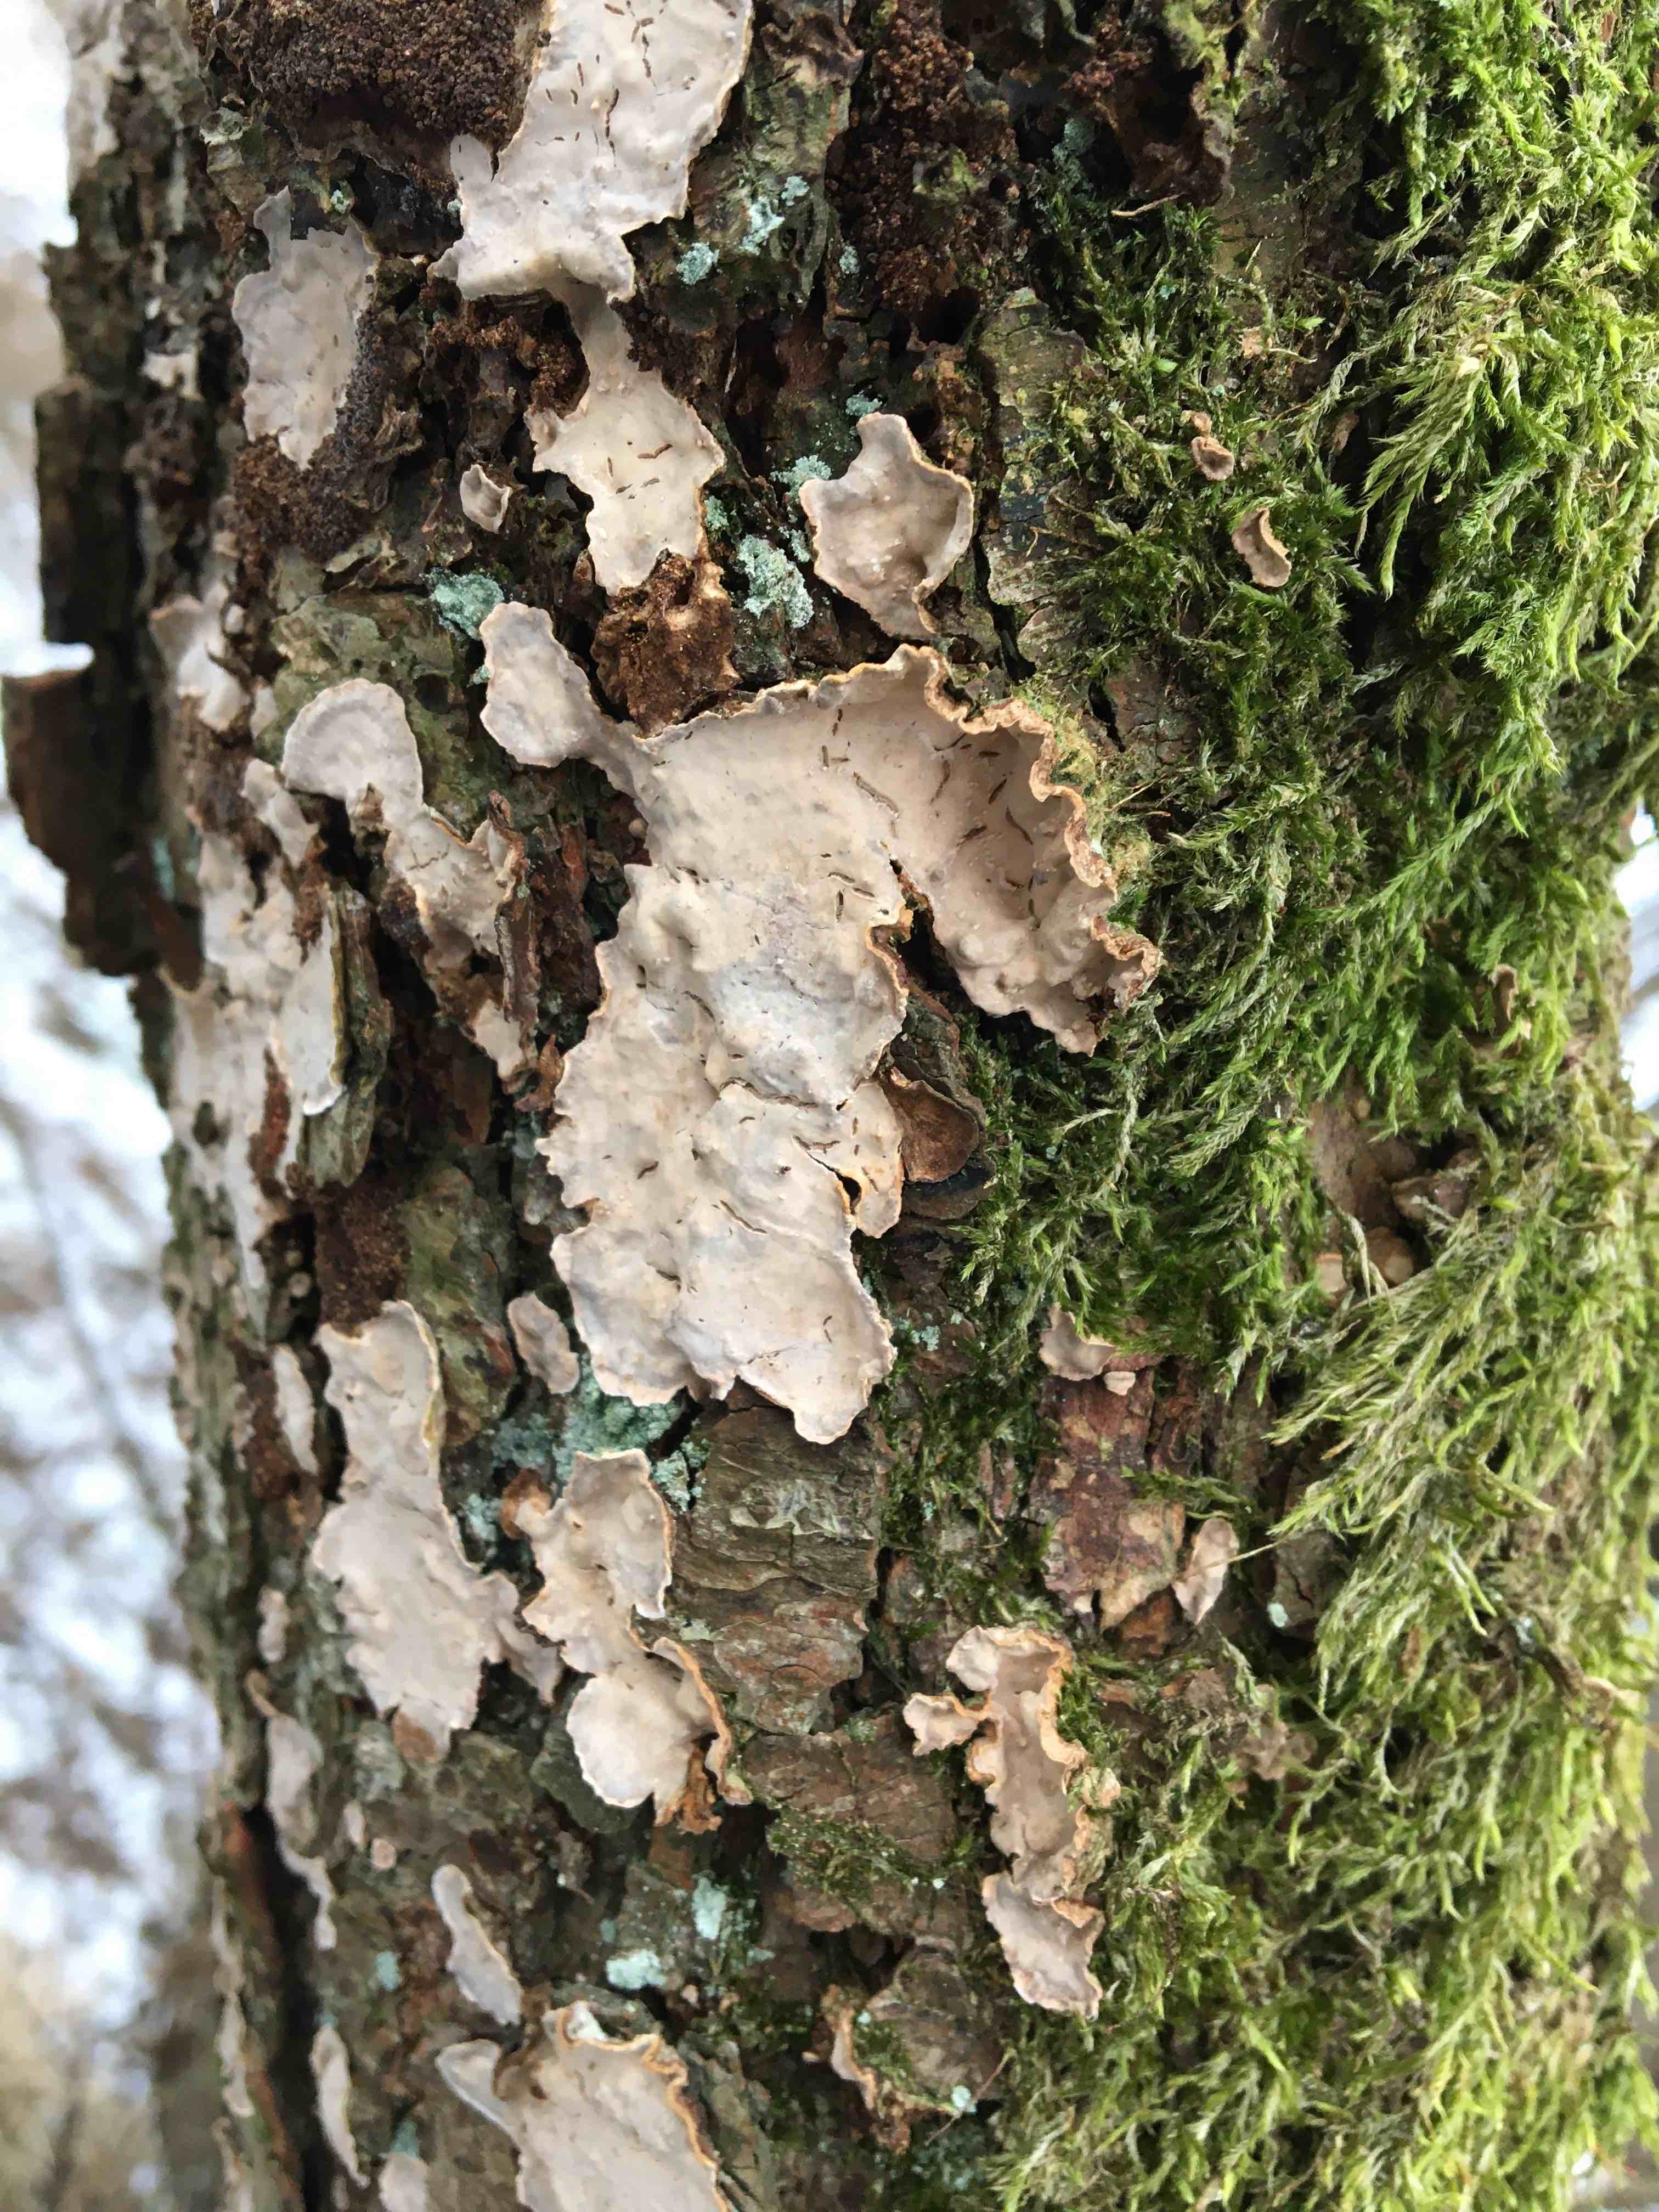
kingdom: Fungi
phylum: Basidiomycota
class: Agaricomycetes
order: Russulales
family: Stereaceae
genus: Stereum
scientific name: Stereum rugosum
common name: rynket lædersvamp
